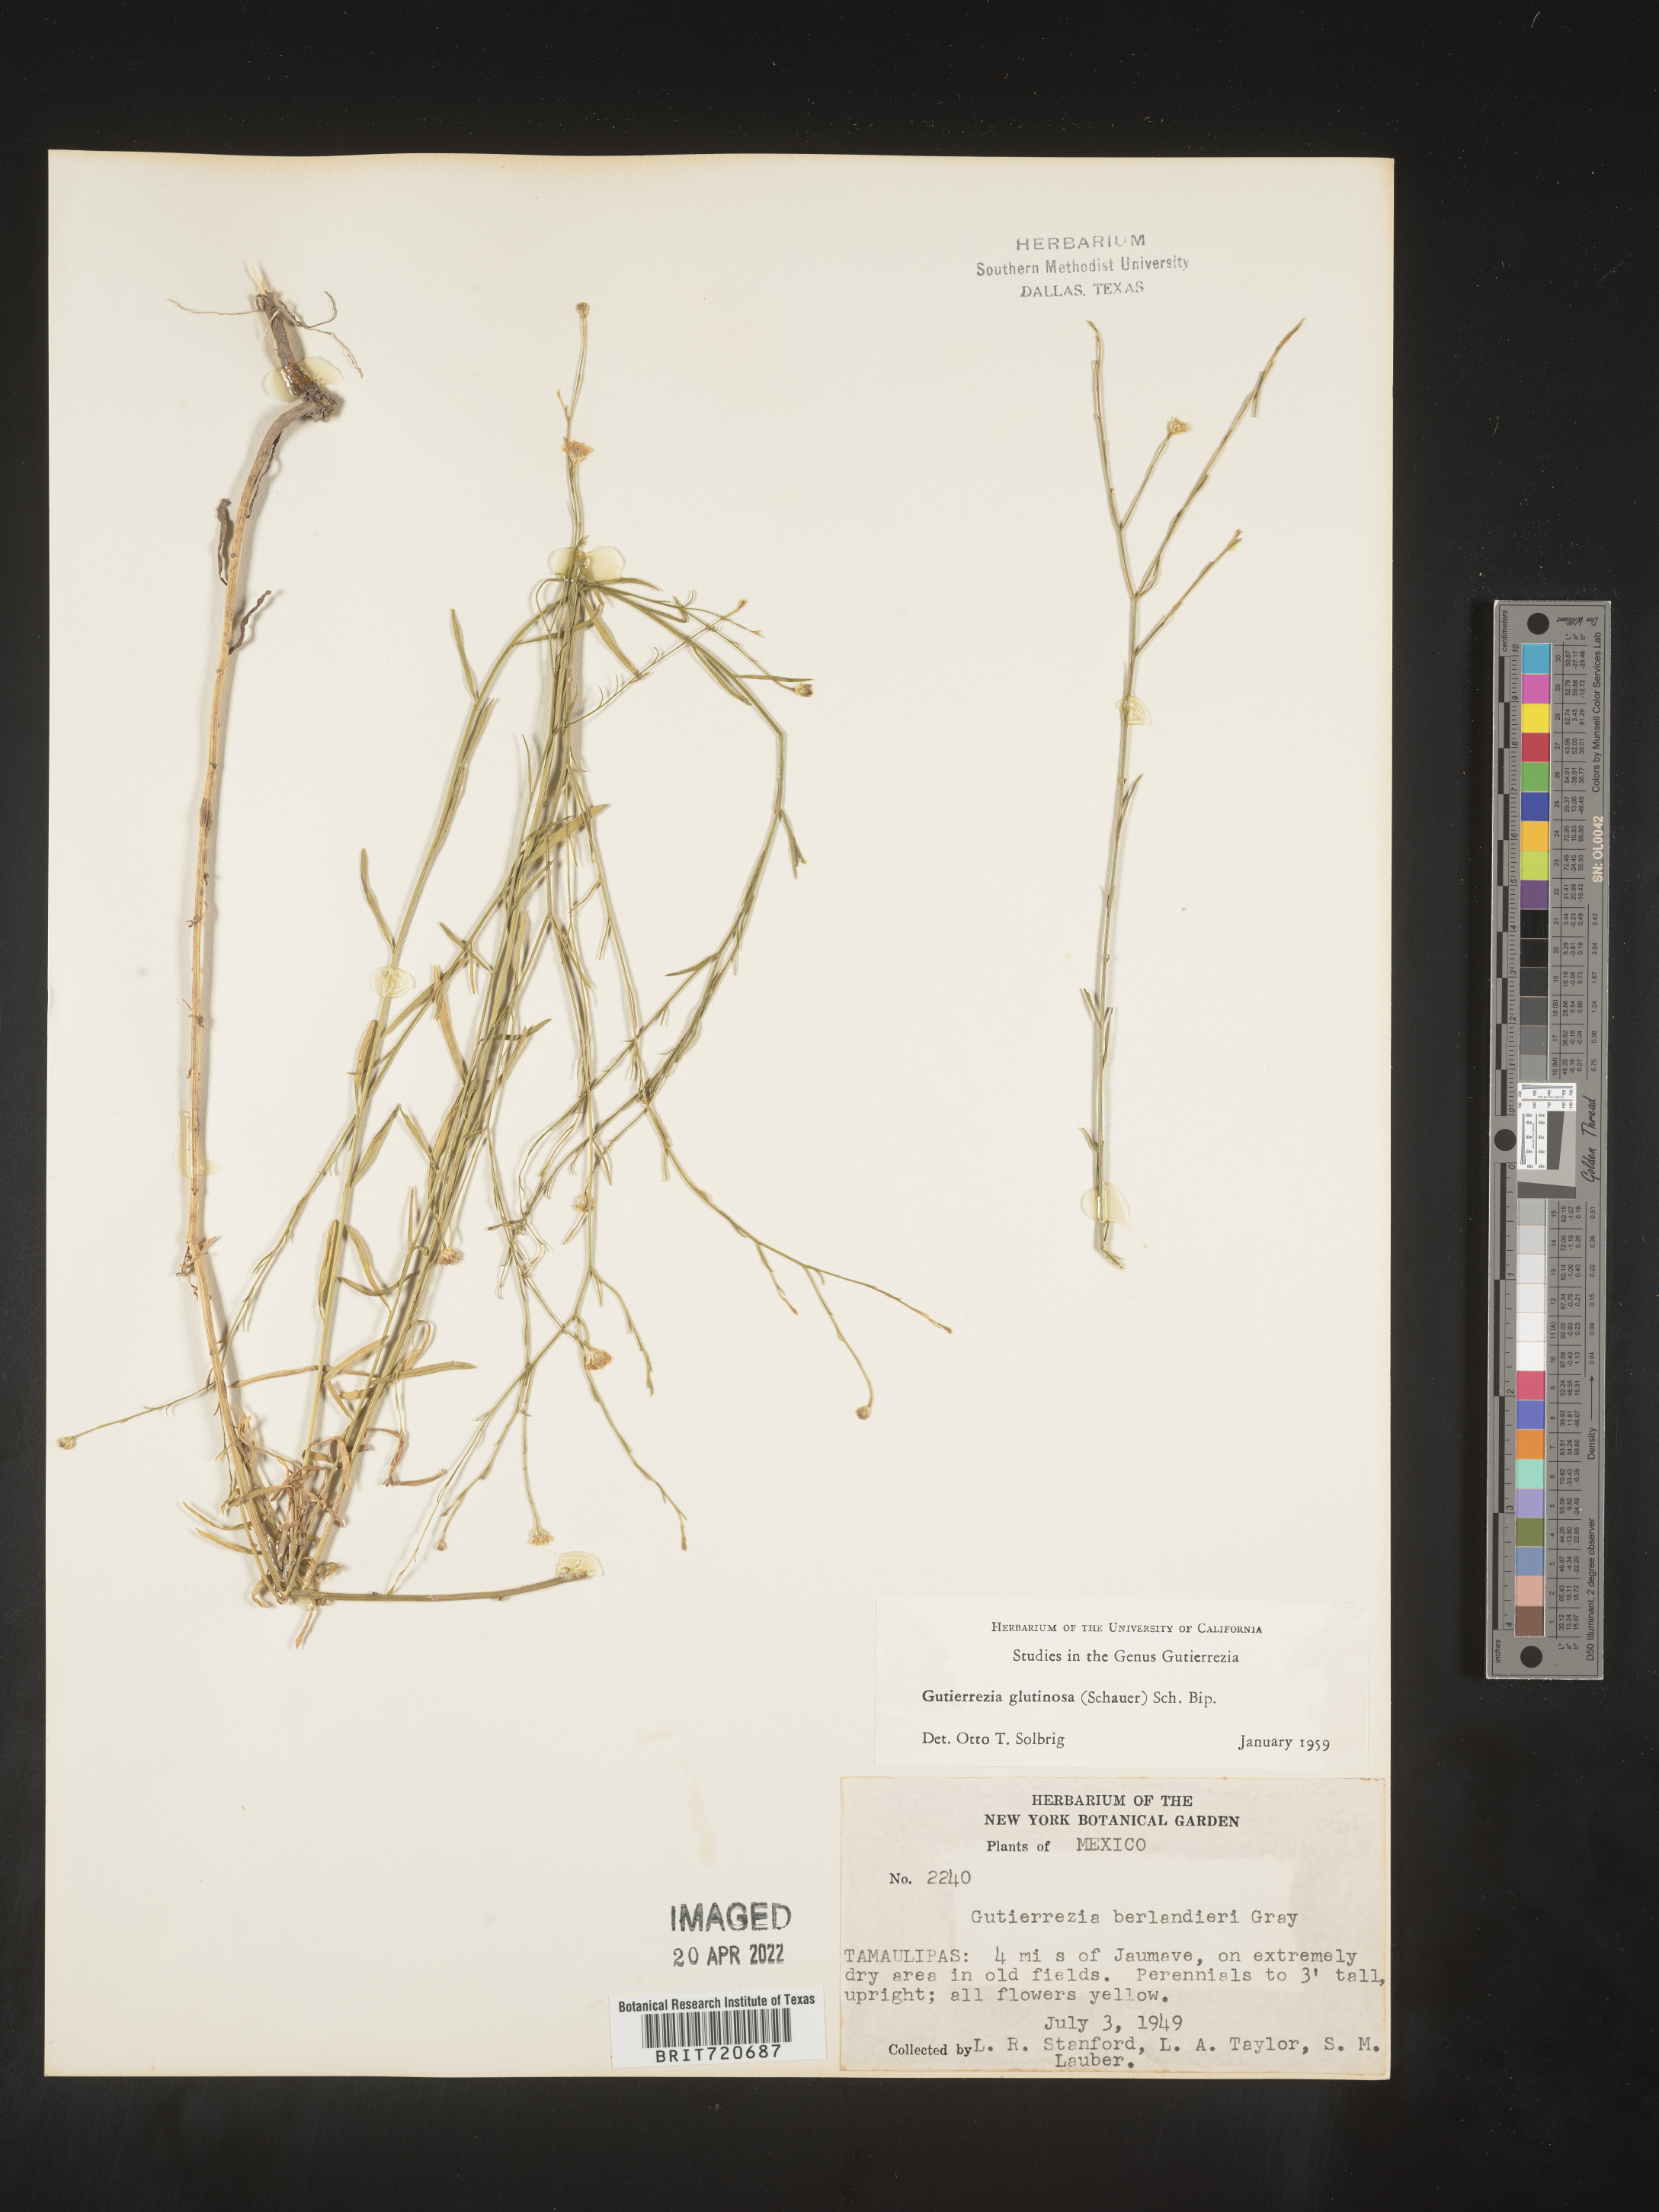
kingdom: Plantae
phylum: Tracheophyta
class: Magnoliopsida
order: Asterales
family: Asteraceae
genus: Gutierrezia
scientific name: Gutierrezia texana
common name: Texas snakeweed
